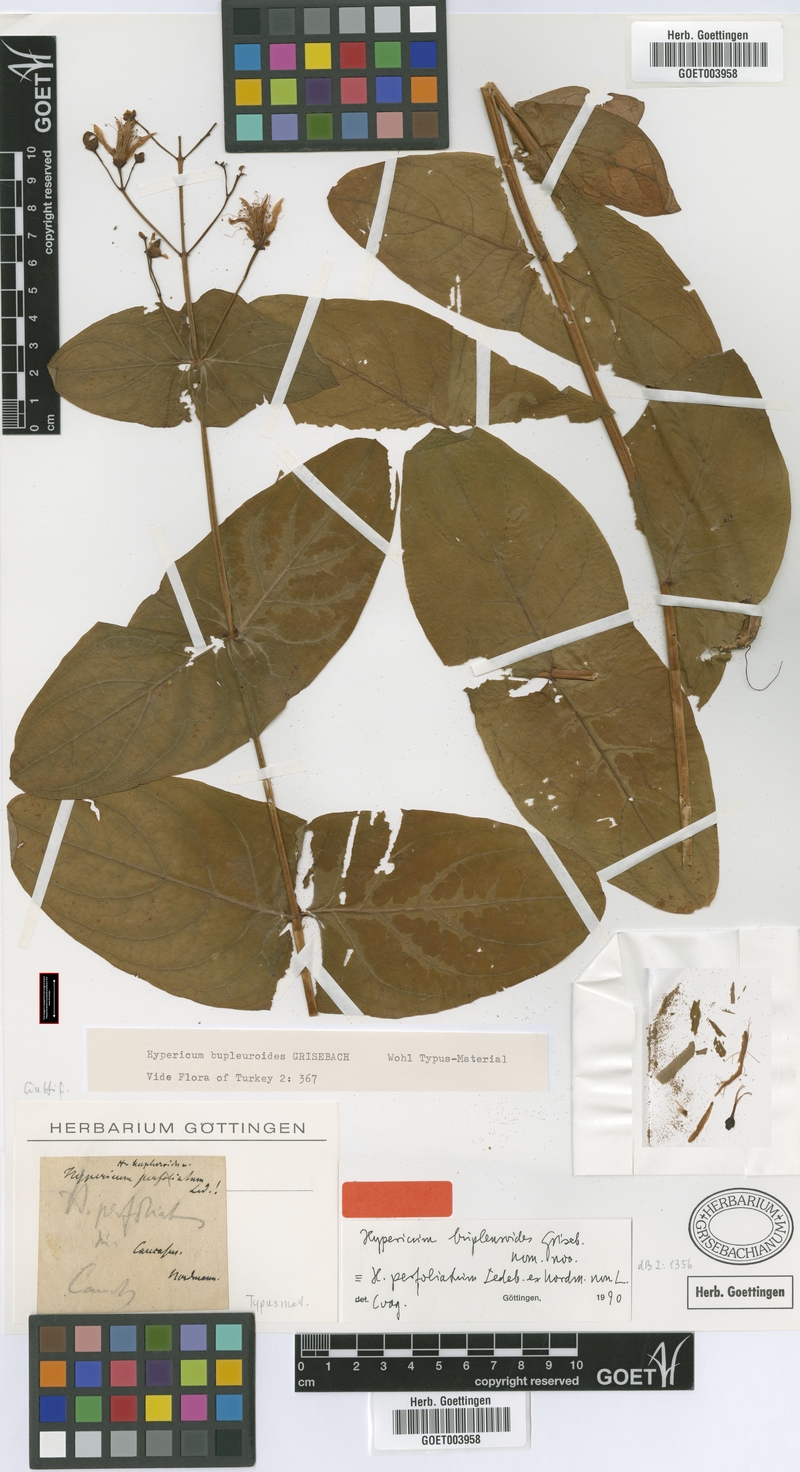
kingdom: Plantae
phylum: Tracheophyta
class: Magnoliopsida
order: Malpighiales
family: Hypericaceae
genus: Hypericum
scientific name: Hypericum bupleuroides
